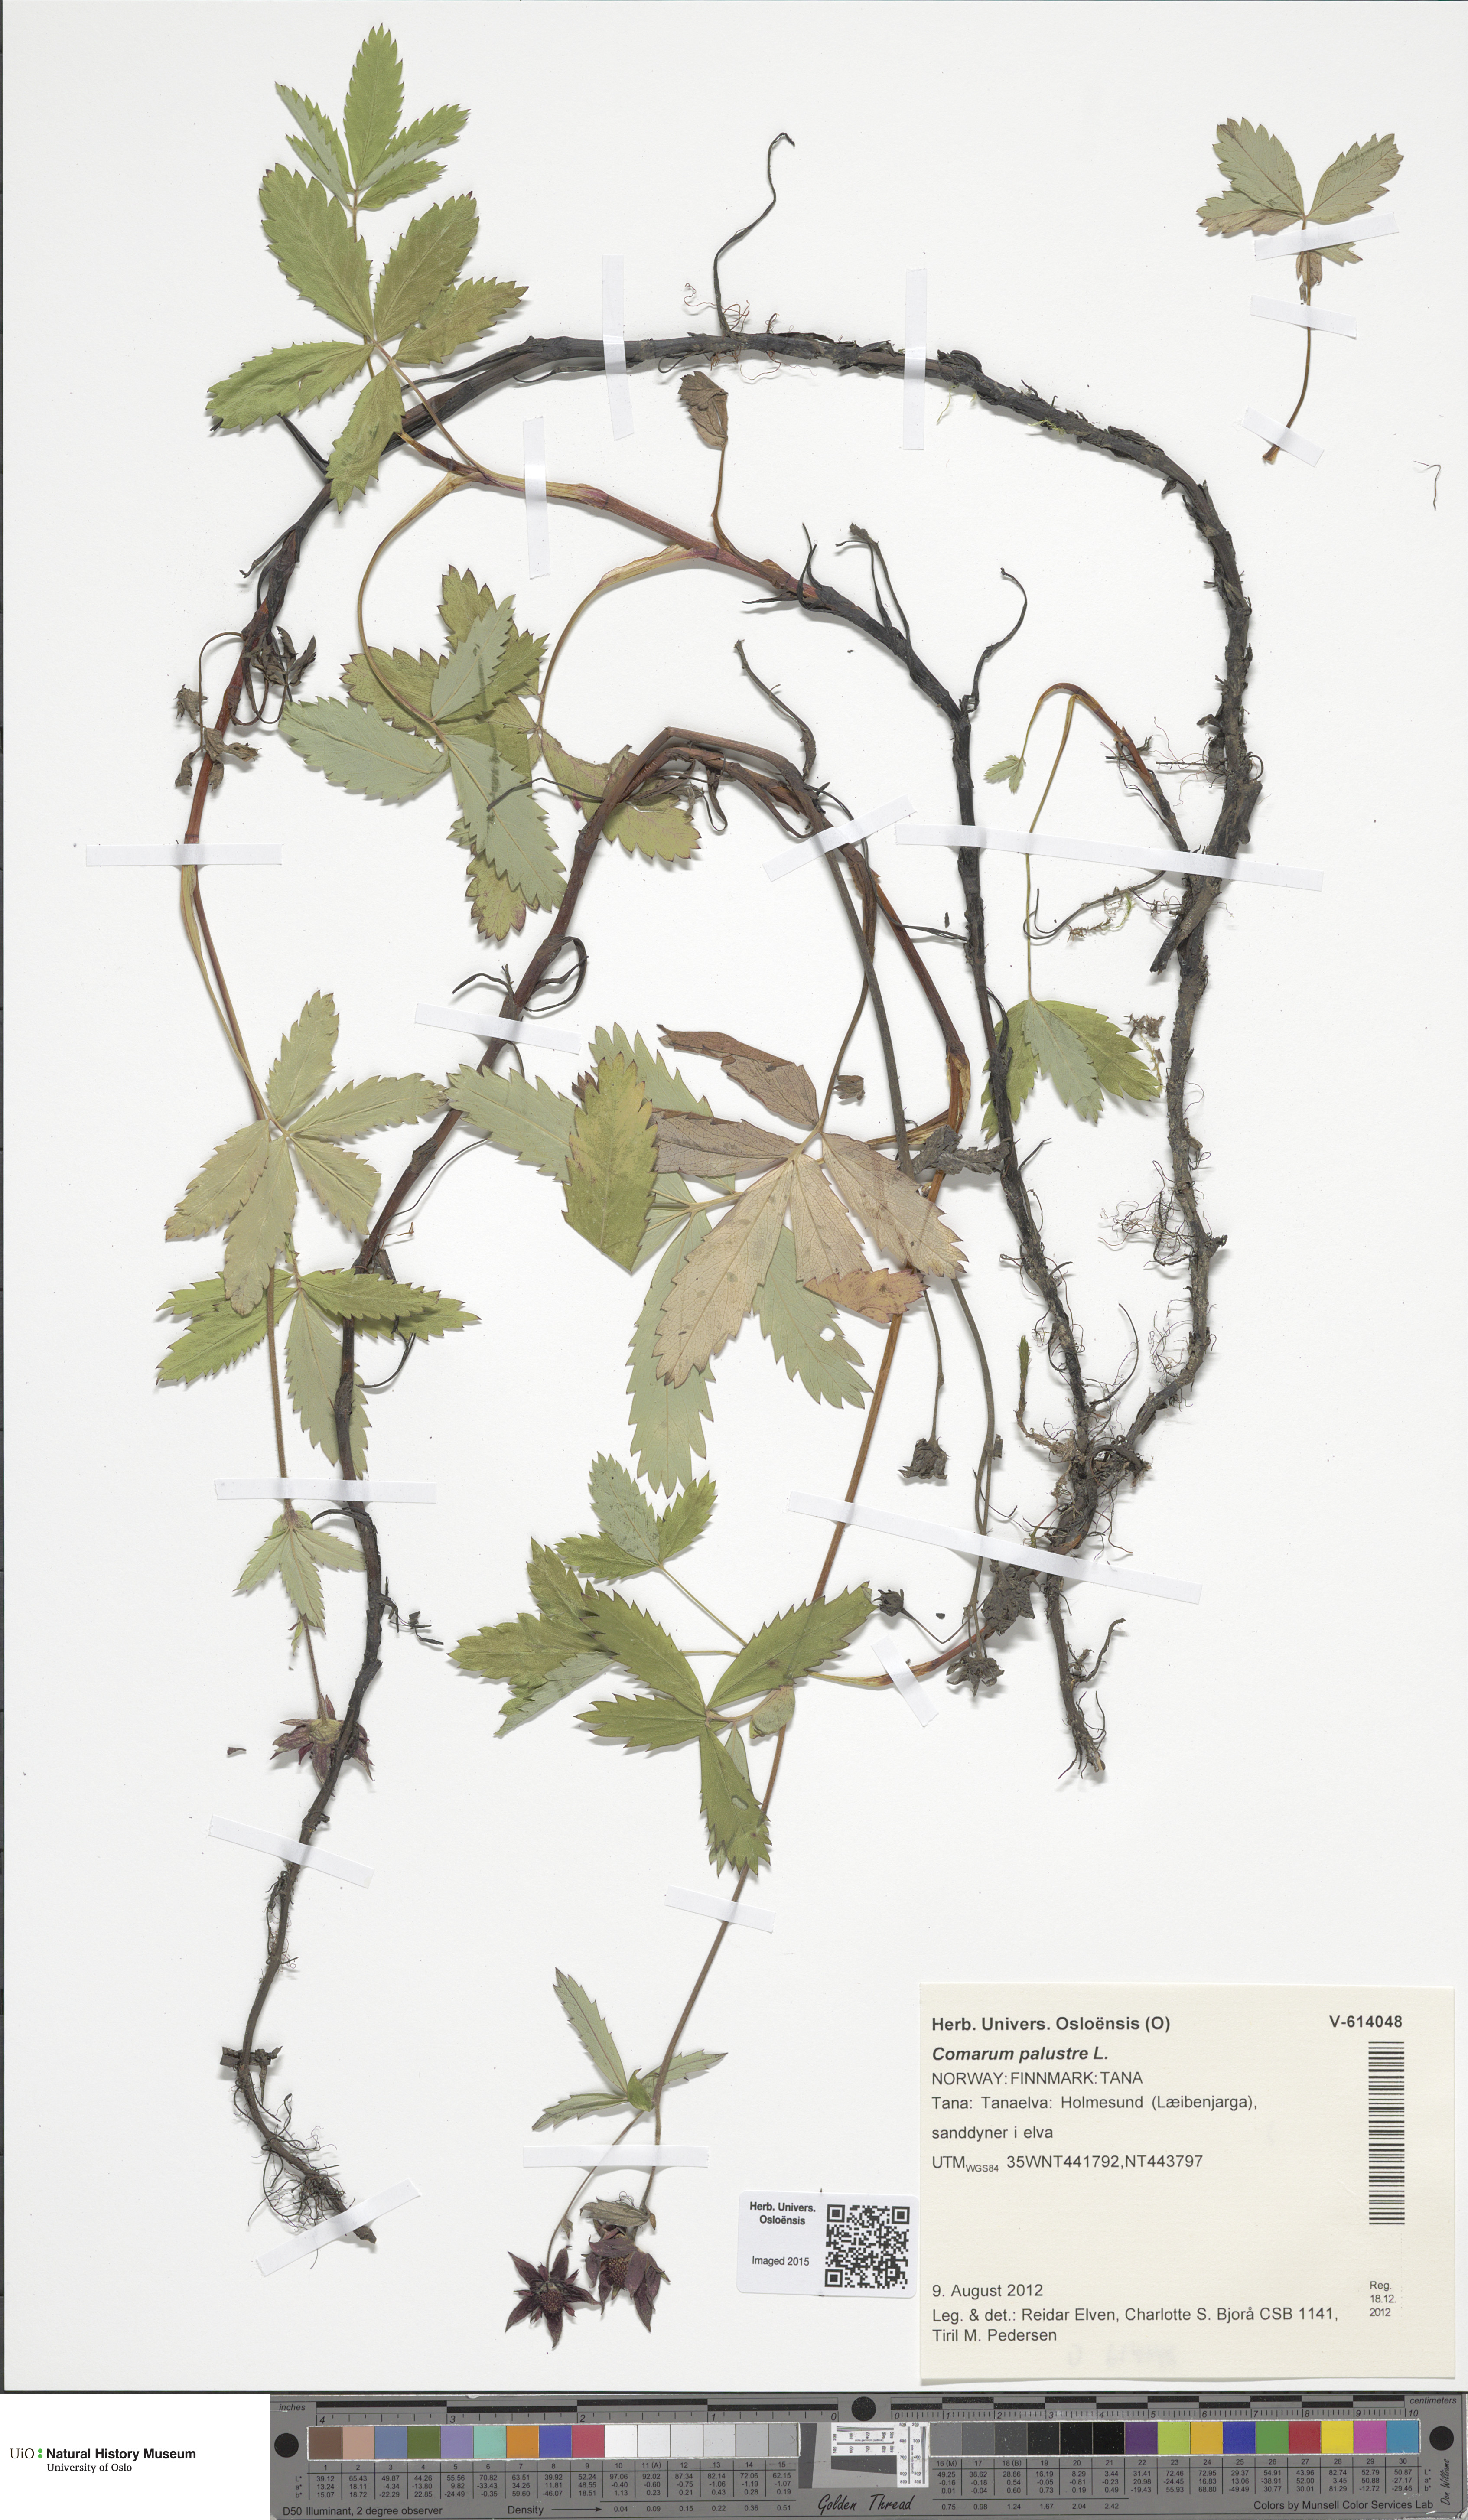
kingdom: Plantae
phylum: Tracheophyta
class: Magnoliopsida
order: Rosales
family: Rosaceae
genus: Comarum
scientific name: Comarum palustre
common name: Marsh cinquefoil
